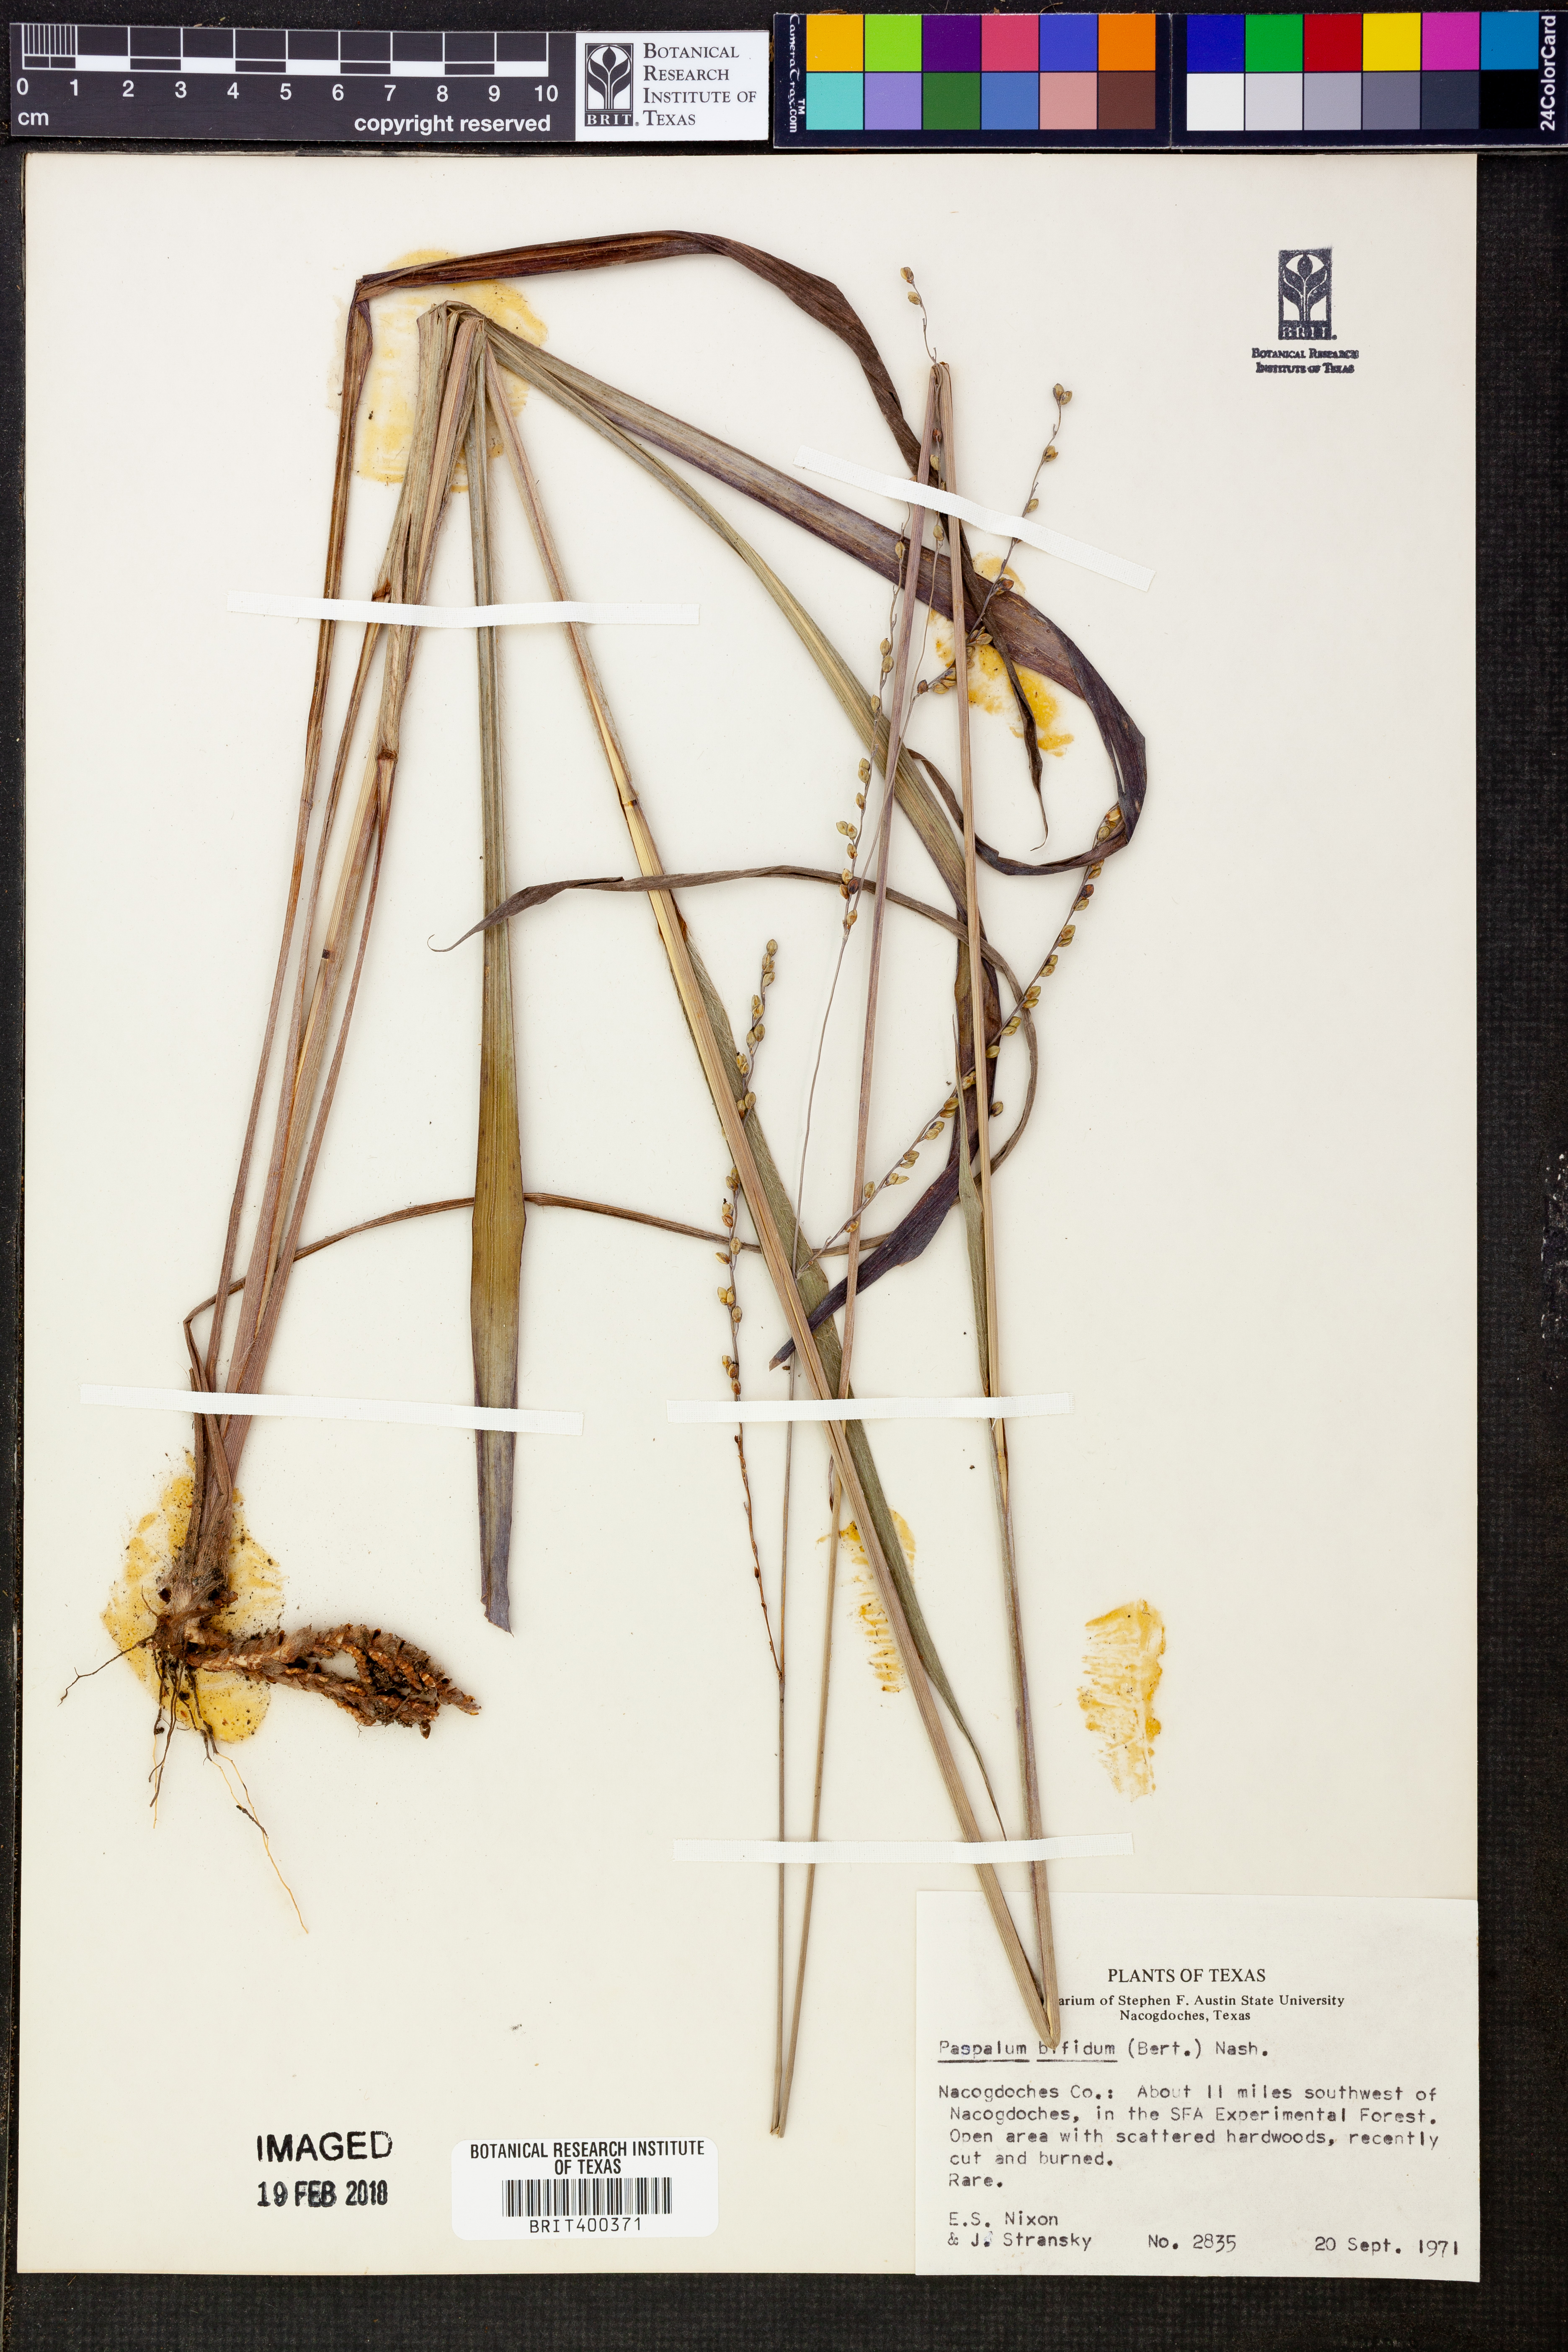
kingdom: Plantae
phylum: Tracheophyta
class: Liliopsida
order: Poales
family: Poaceae
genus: Paspalum
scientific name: Paspalum bifidum
